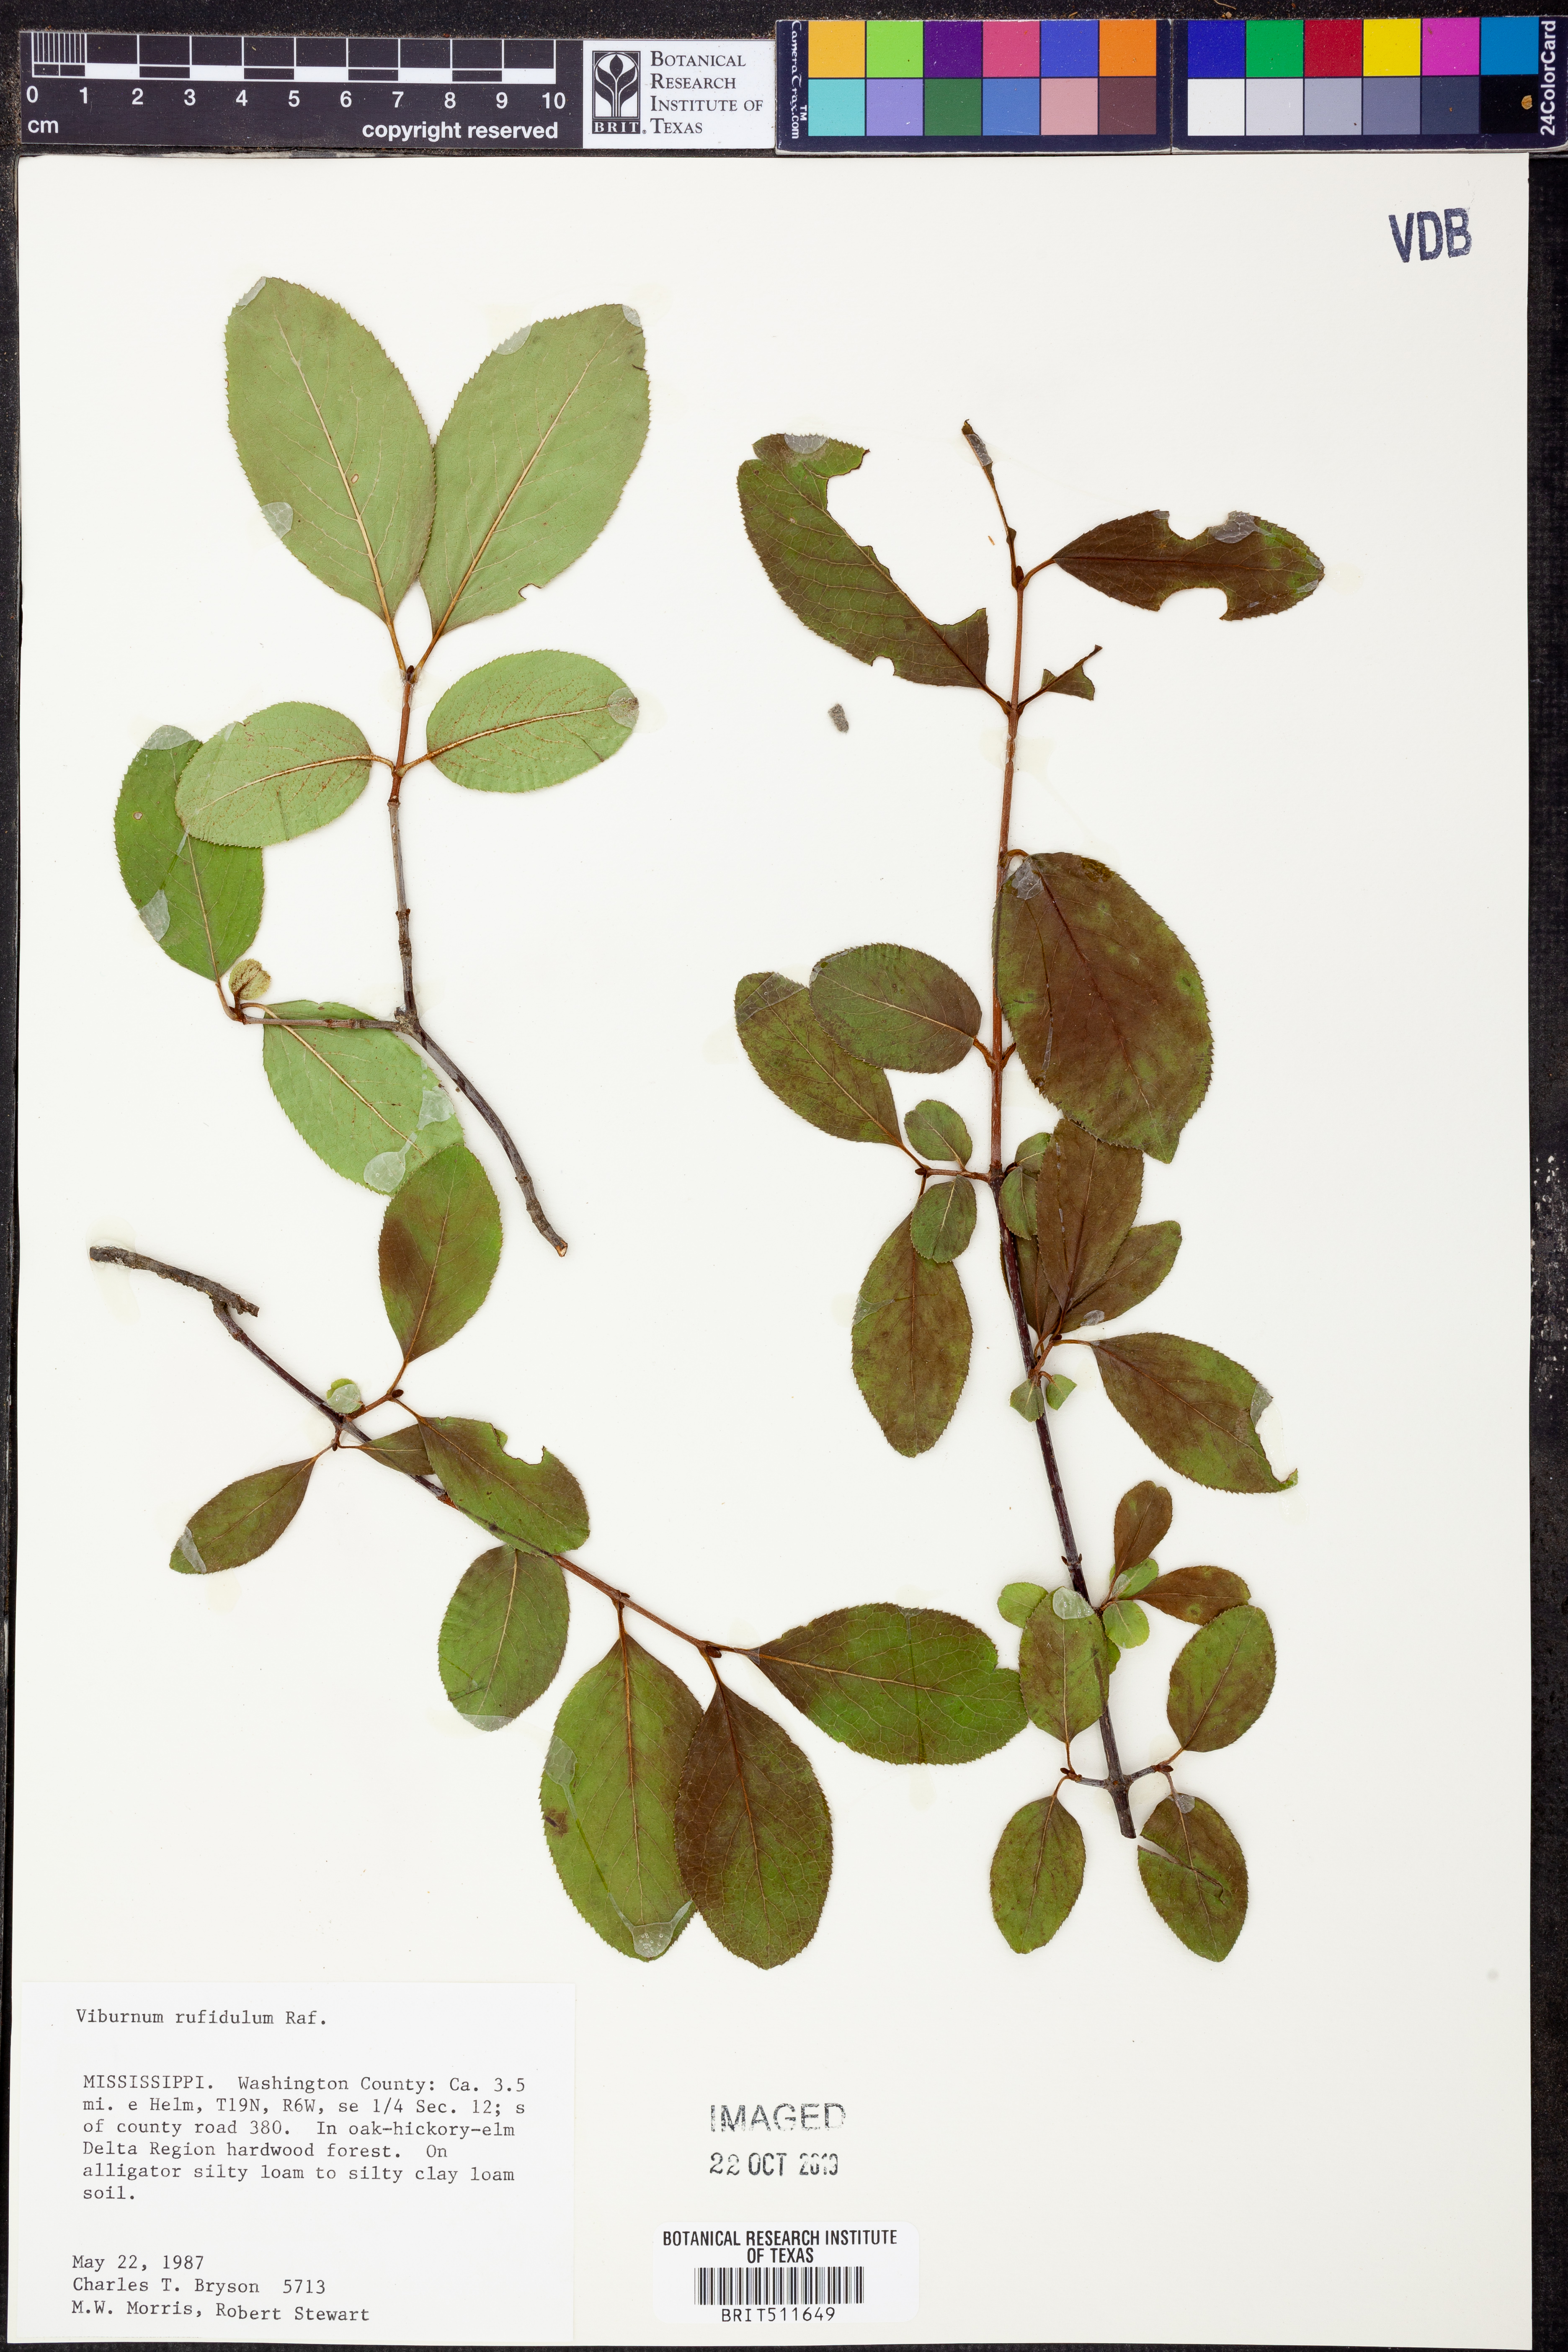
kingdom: Plantae
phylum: Tracheophyta
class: Magnoliopsida
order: Dipsacales
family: Viburnaceae
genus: Viburnum
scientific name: Viburnum rufidulum
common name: Blue haw
